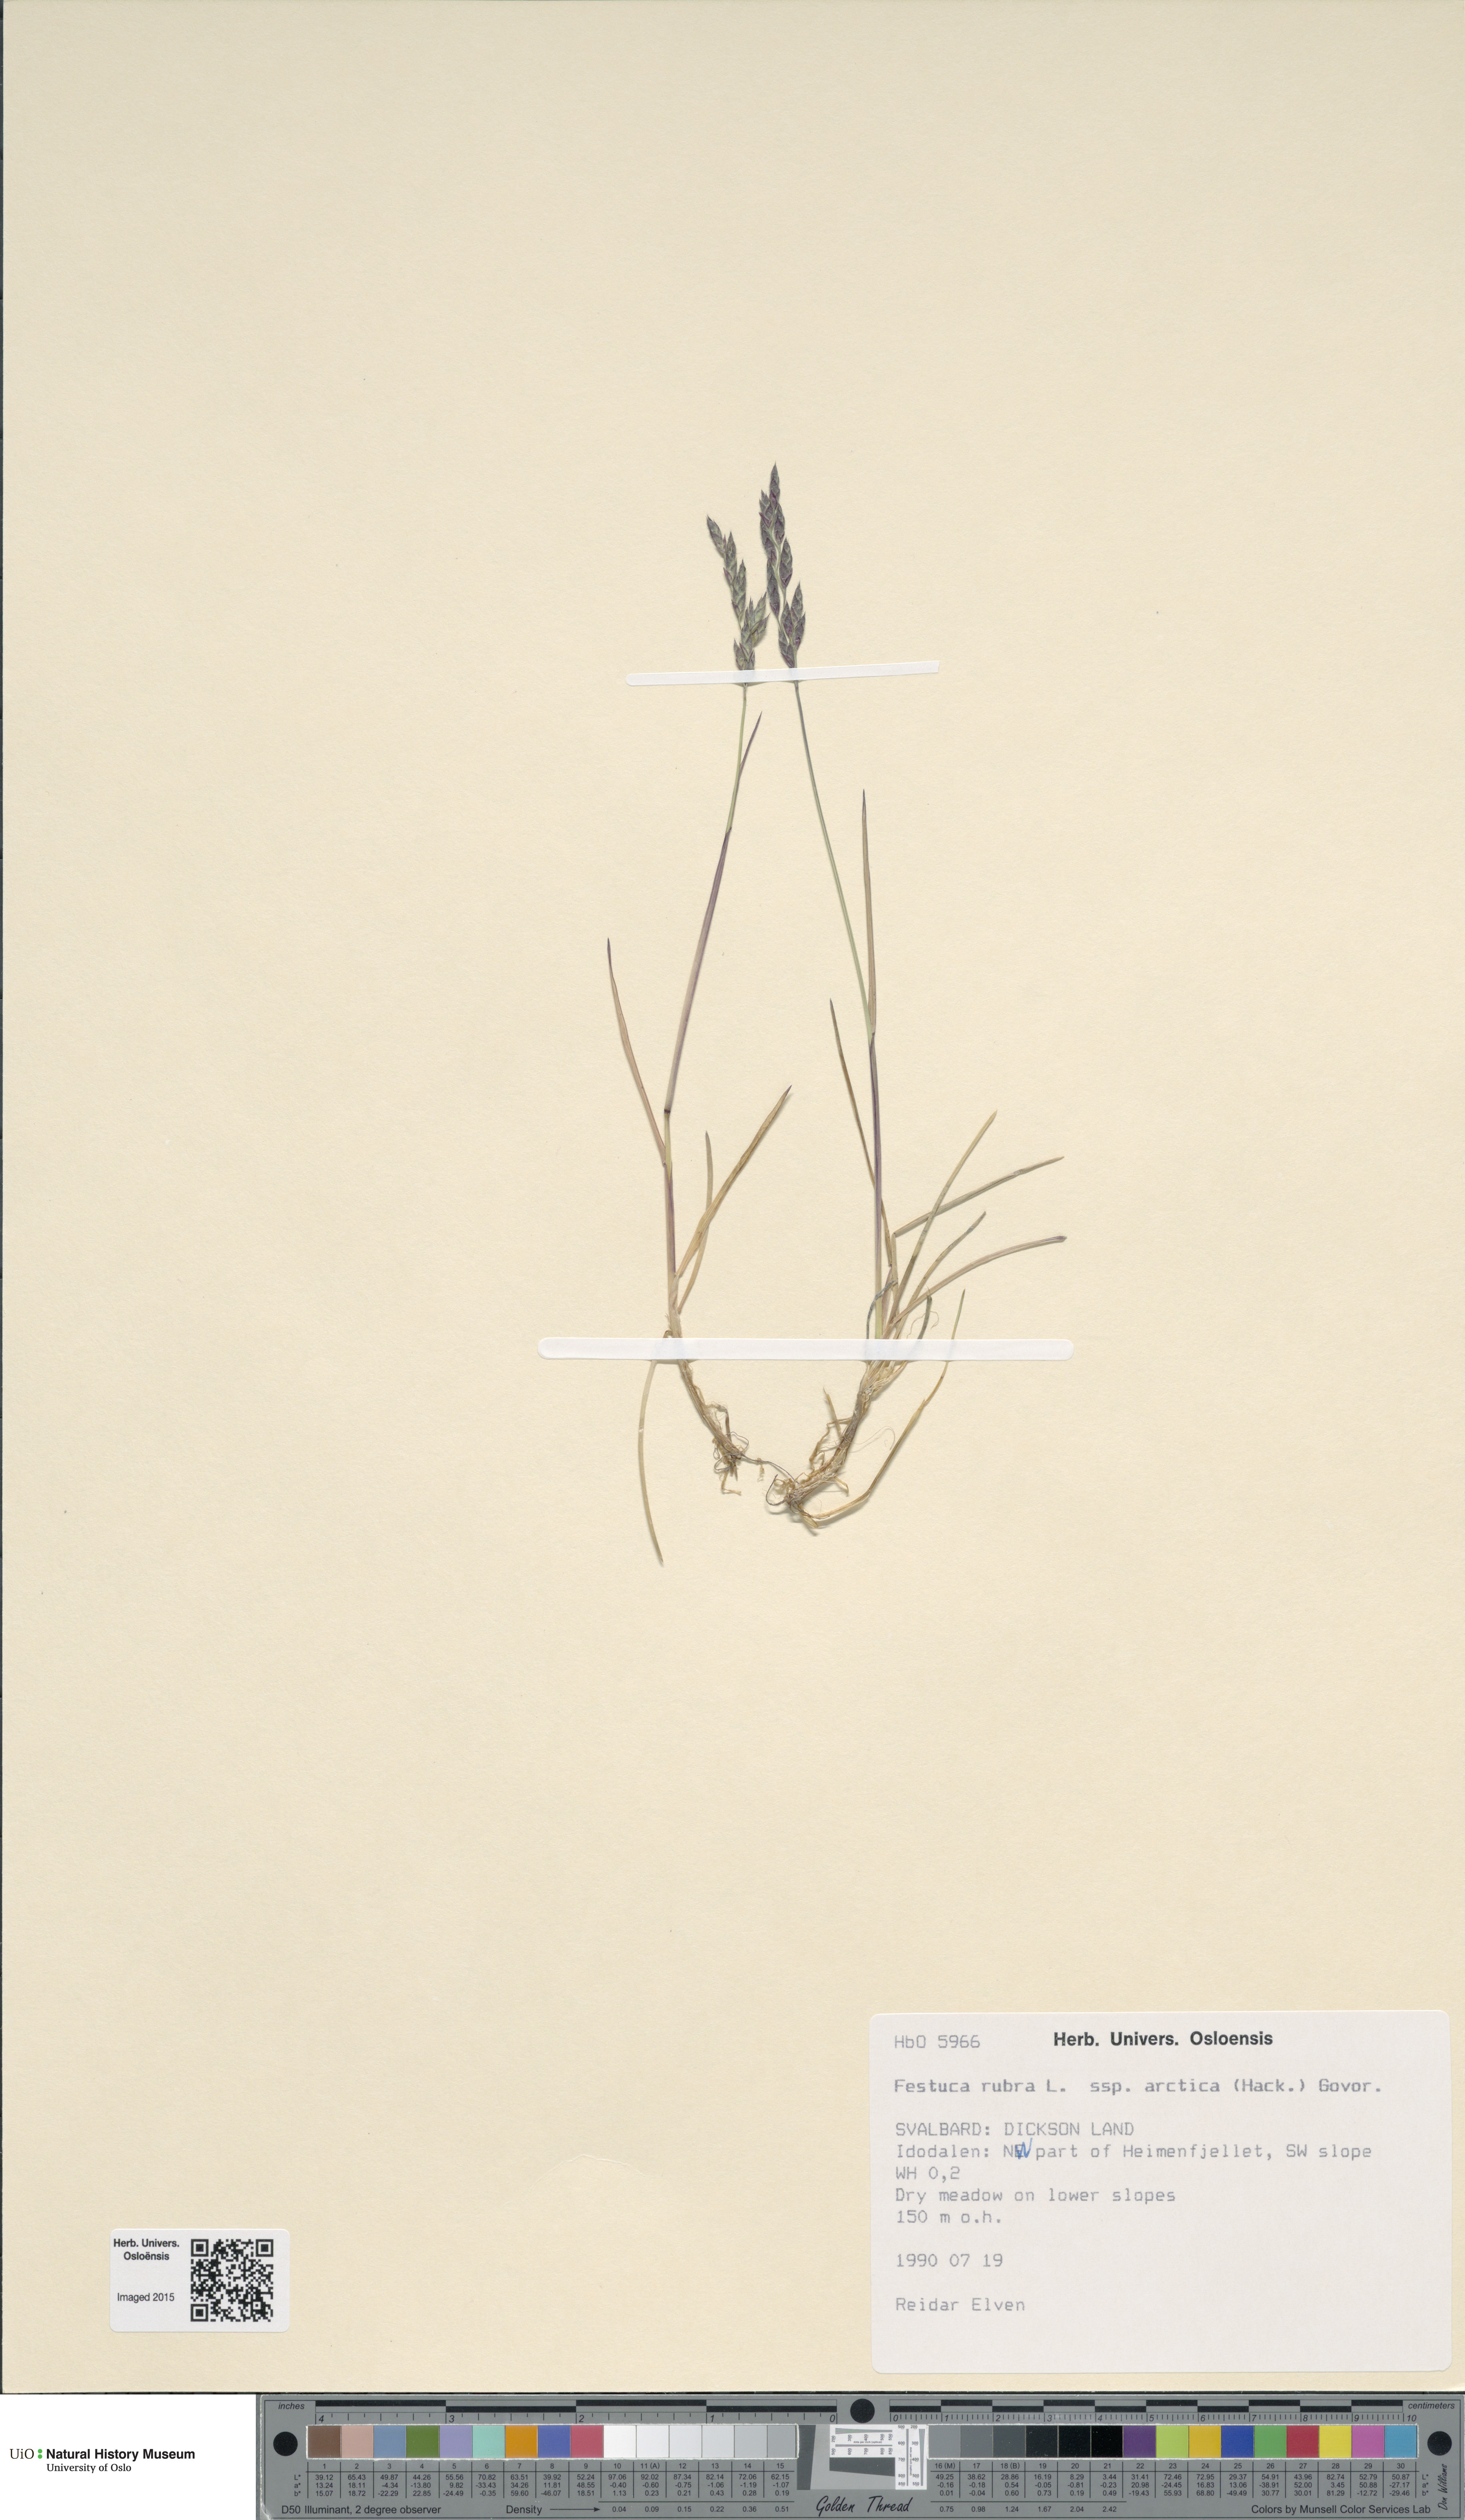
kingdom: Plantae
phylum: Tracheophyta
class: Liliopsida
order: Poales
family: Poaceae
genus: Festuca
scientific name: Festuca richardsonii
